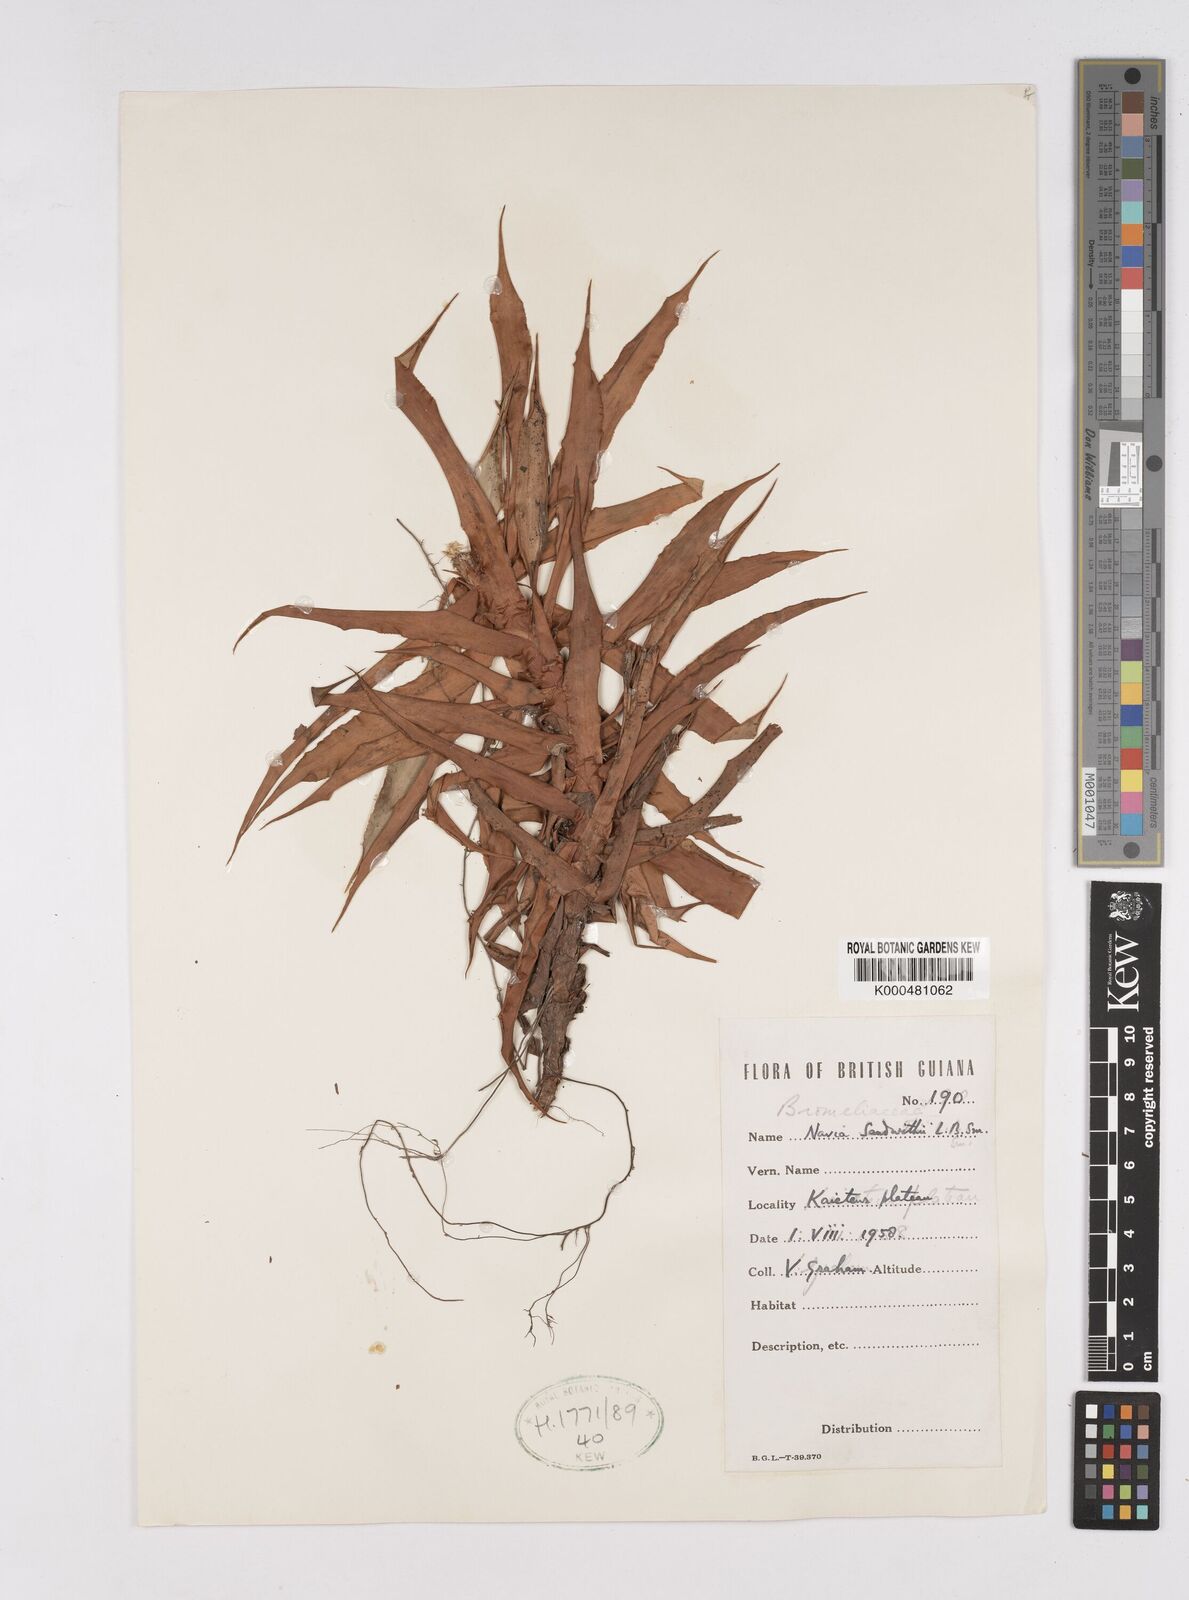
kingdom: Plantae
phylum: Tracheophyta
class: Liliopsida
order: Poales
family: Bromeliaceae
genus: Navia
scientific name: Navia sandwithii
